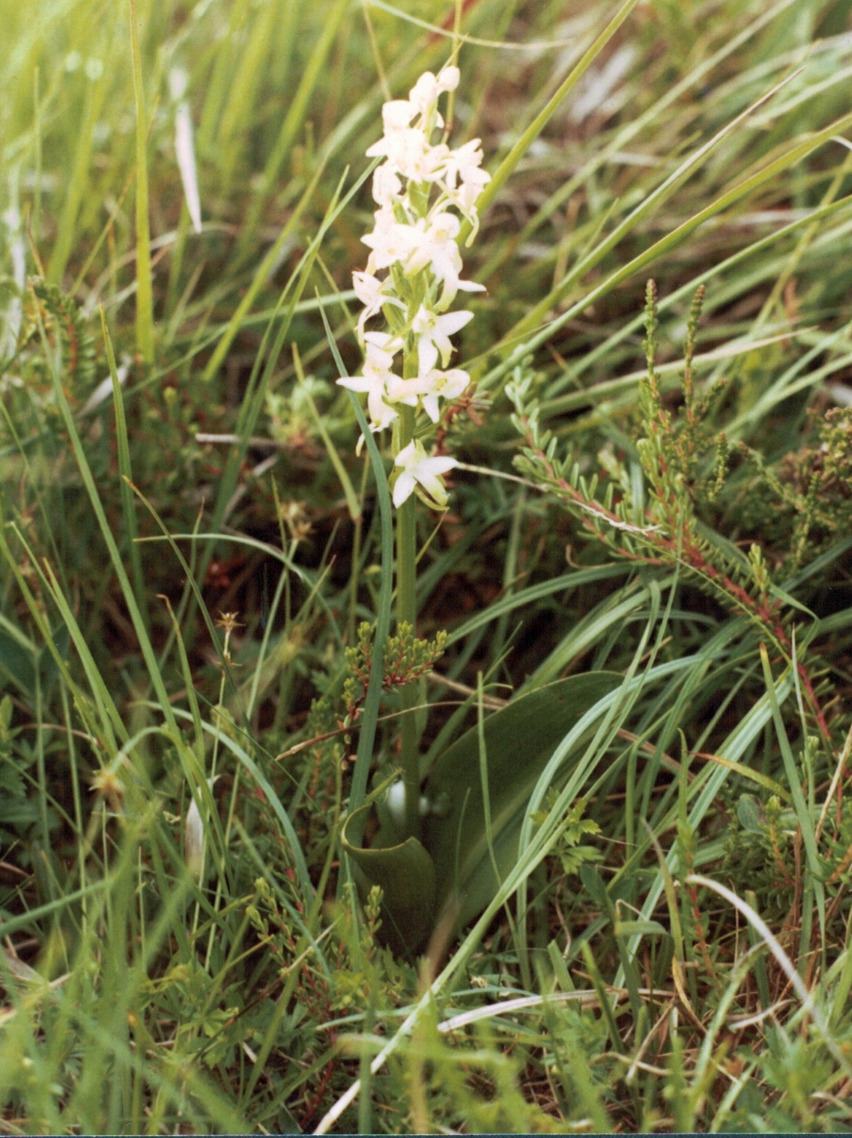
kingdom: Plantae
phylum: Tracheophyta
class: Liliopsida
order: Asparagales
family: Orchidaceae
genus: Platanthera
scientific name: Platanthera bifolia
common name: Bakke-gøgelilje
